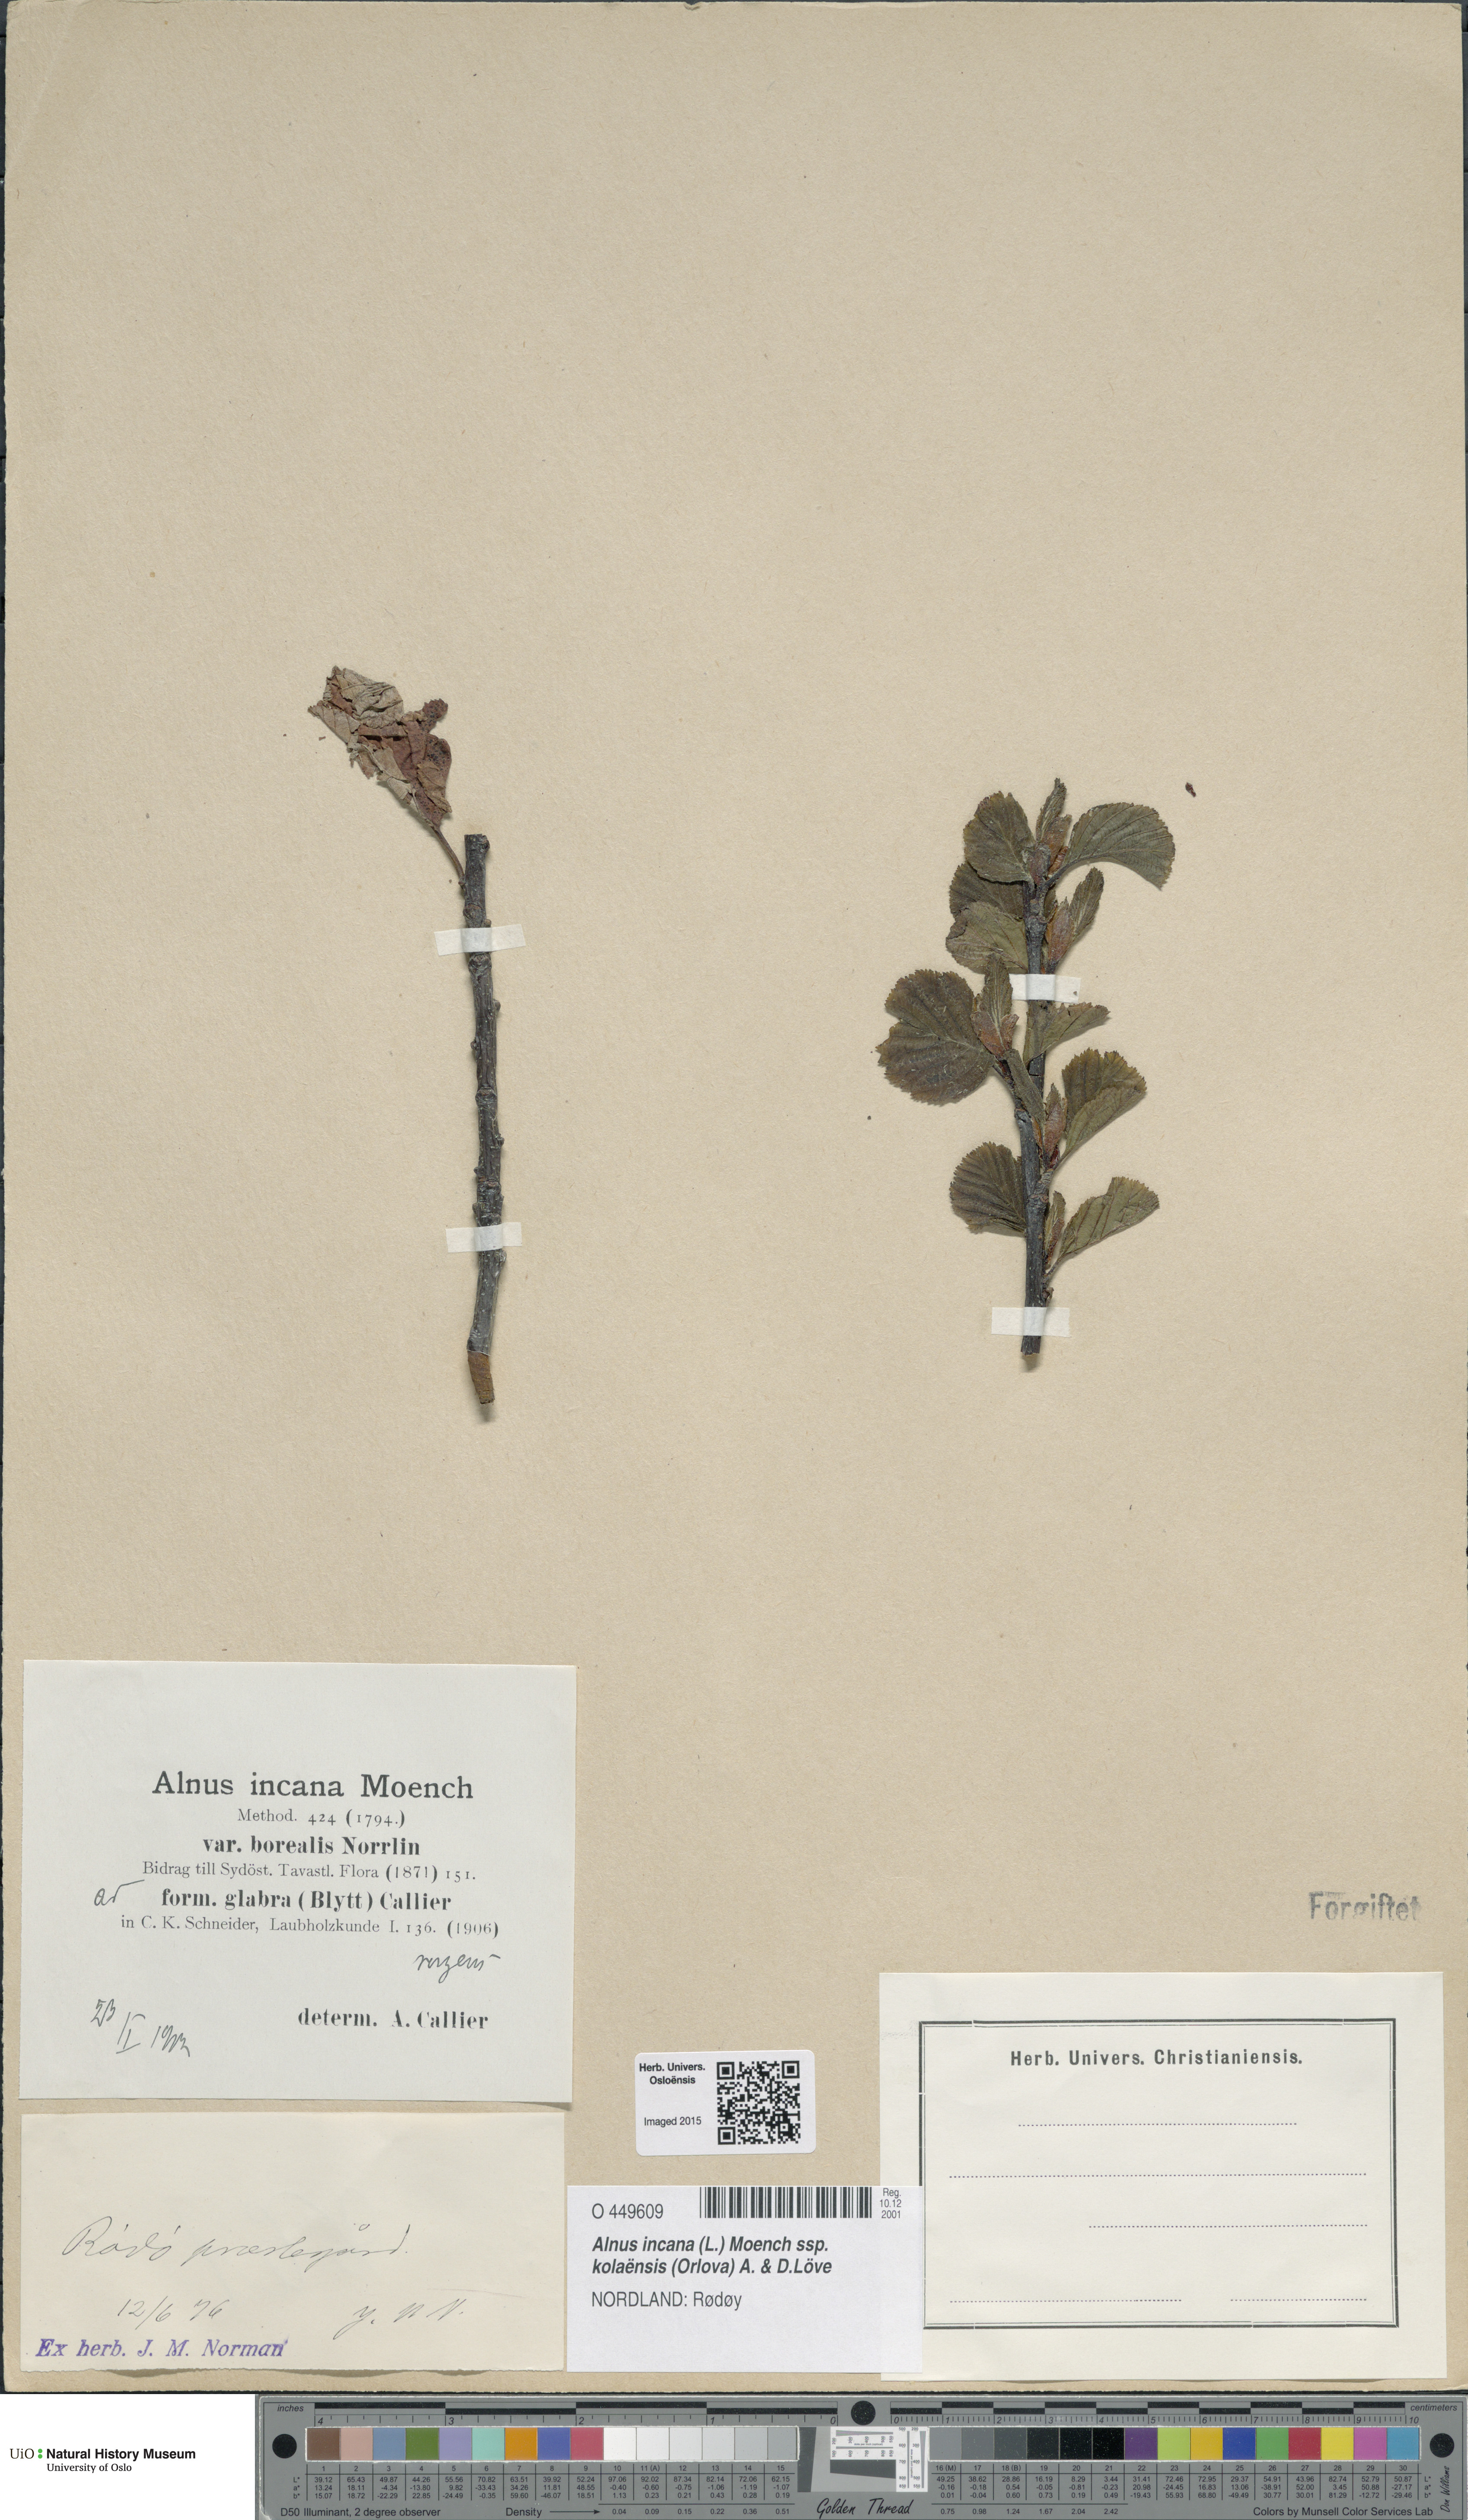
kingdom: Plantae
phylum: Tracheophyta
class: Magnoliopsida
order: Fagales
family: Betulaceae
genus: Alnus
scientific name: Alnus incana
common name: Grey alder
